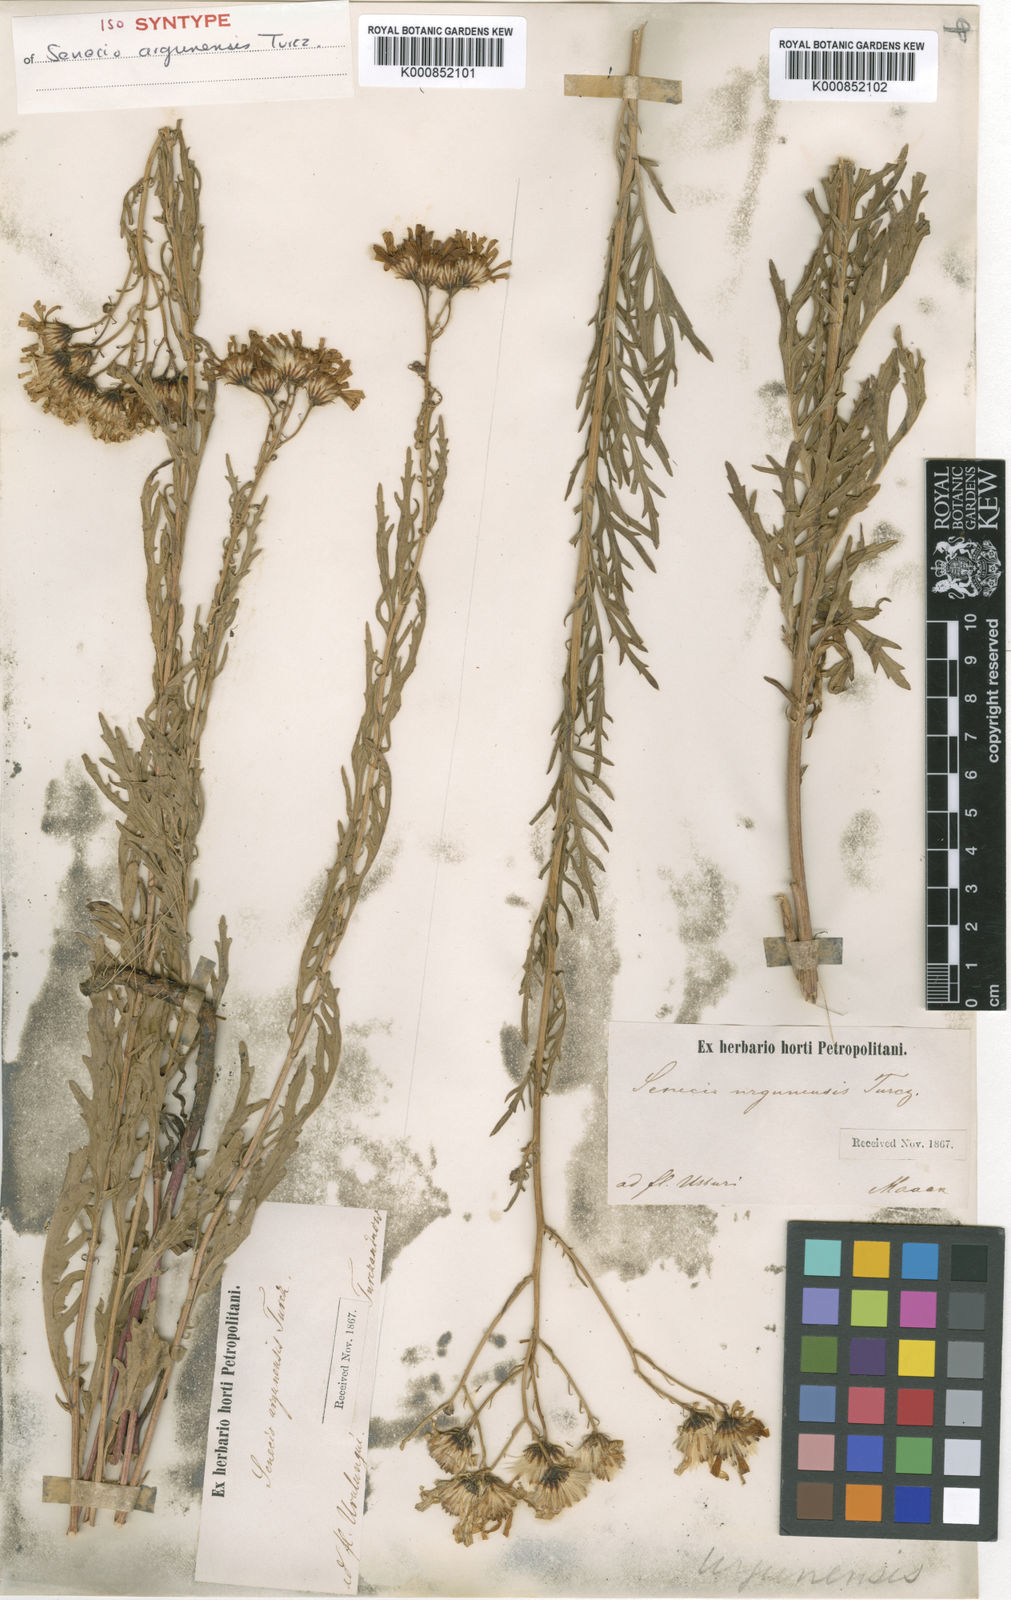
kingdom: Plantae
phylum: Tracheophyta
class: Magnoliopsida
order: Asterales
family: Asteraceae
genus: Jacobaea
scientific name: Jacobaea erucifolia
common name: Hoary ragwort
